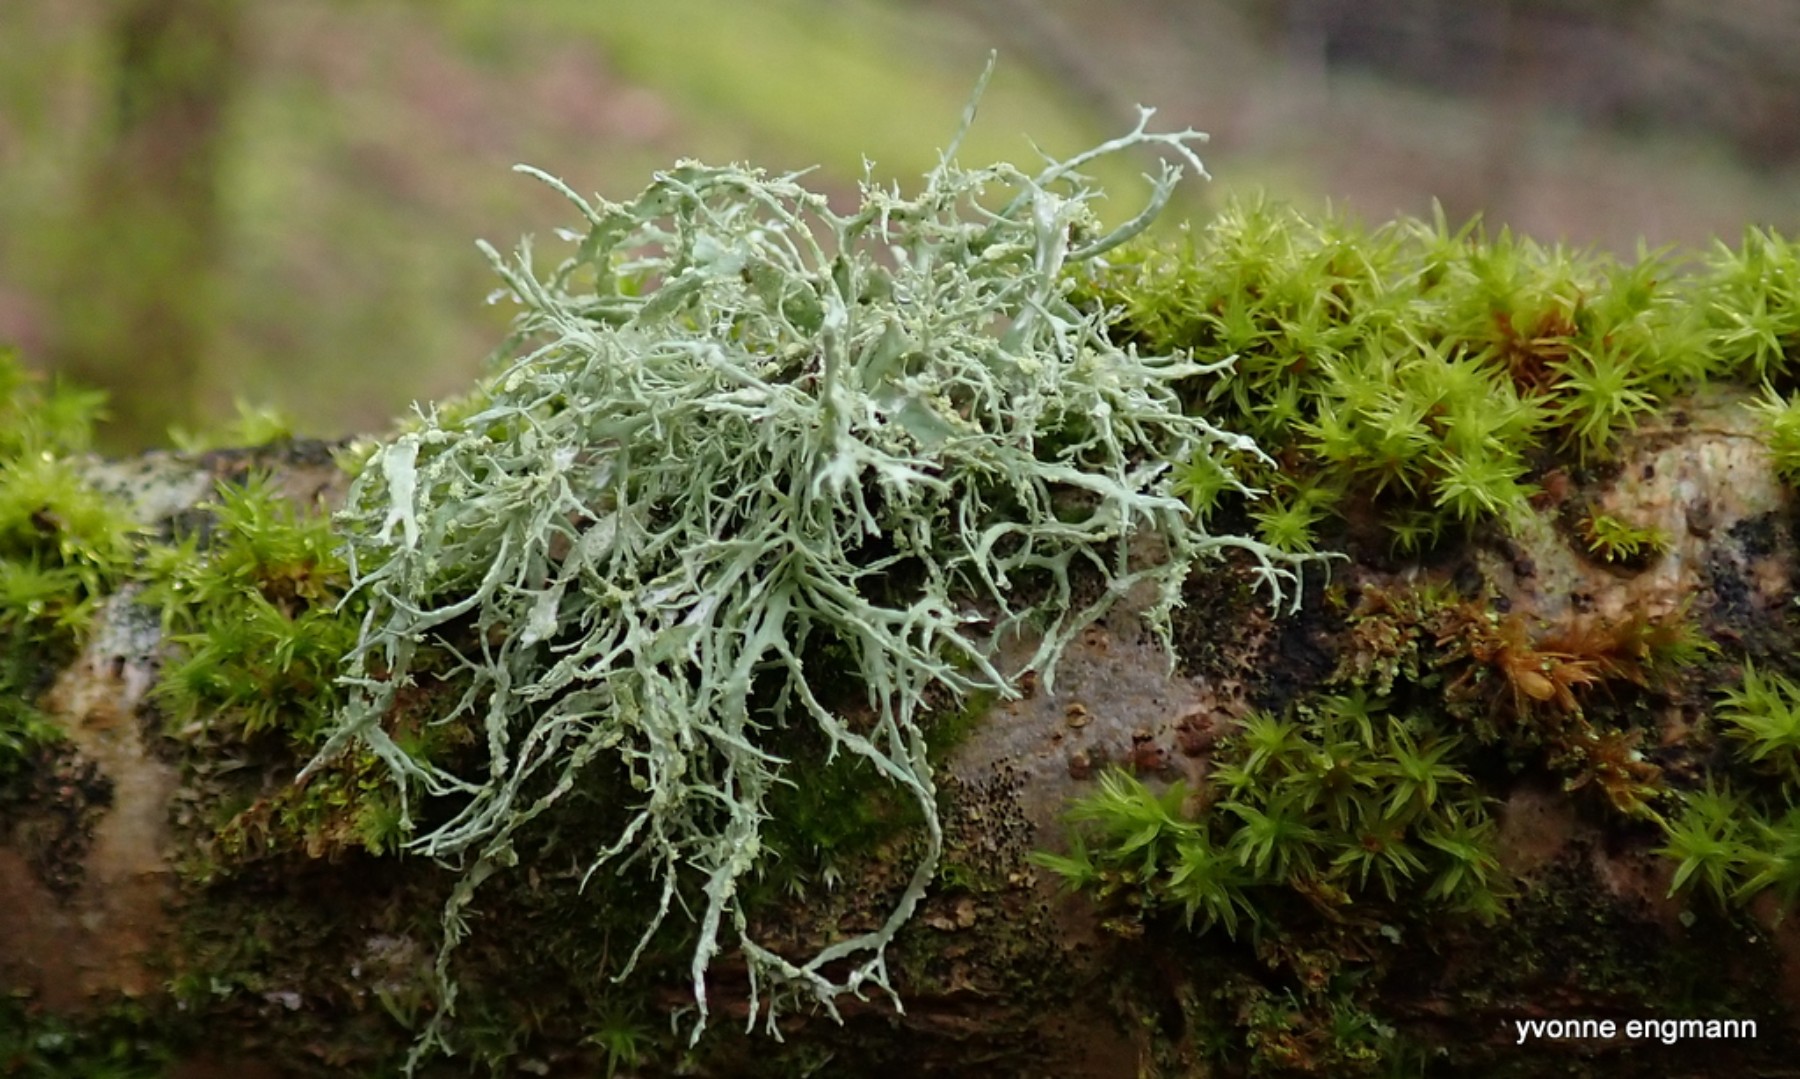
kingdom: Fungi
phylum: Ascomycota
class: Lecanoromycetes
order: Lecanorales
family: Ramalinaceae
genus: Ramalina
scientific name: Ramalina farinacea
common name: melet grenlav
